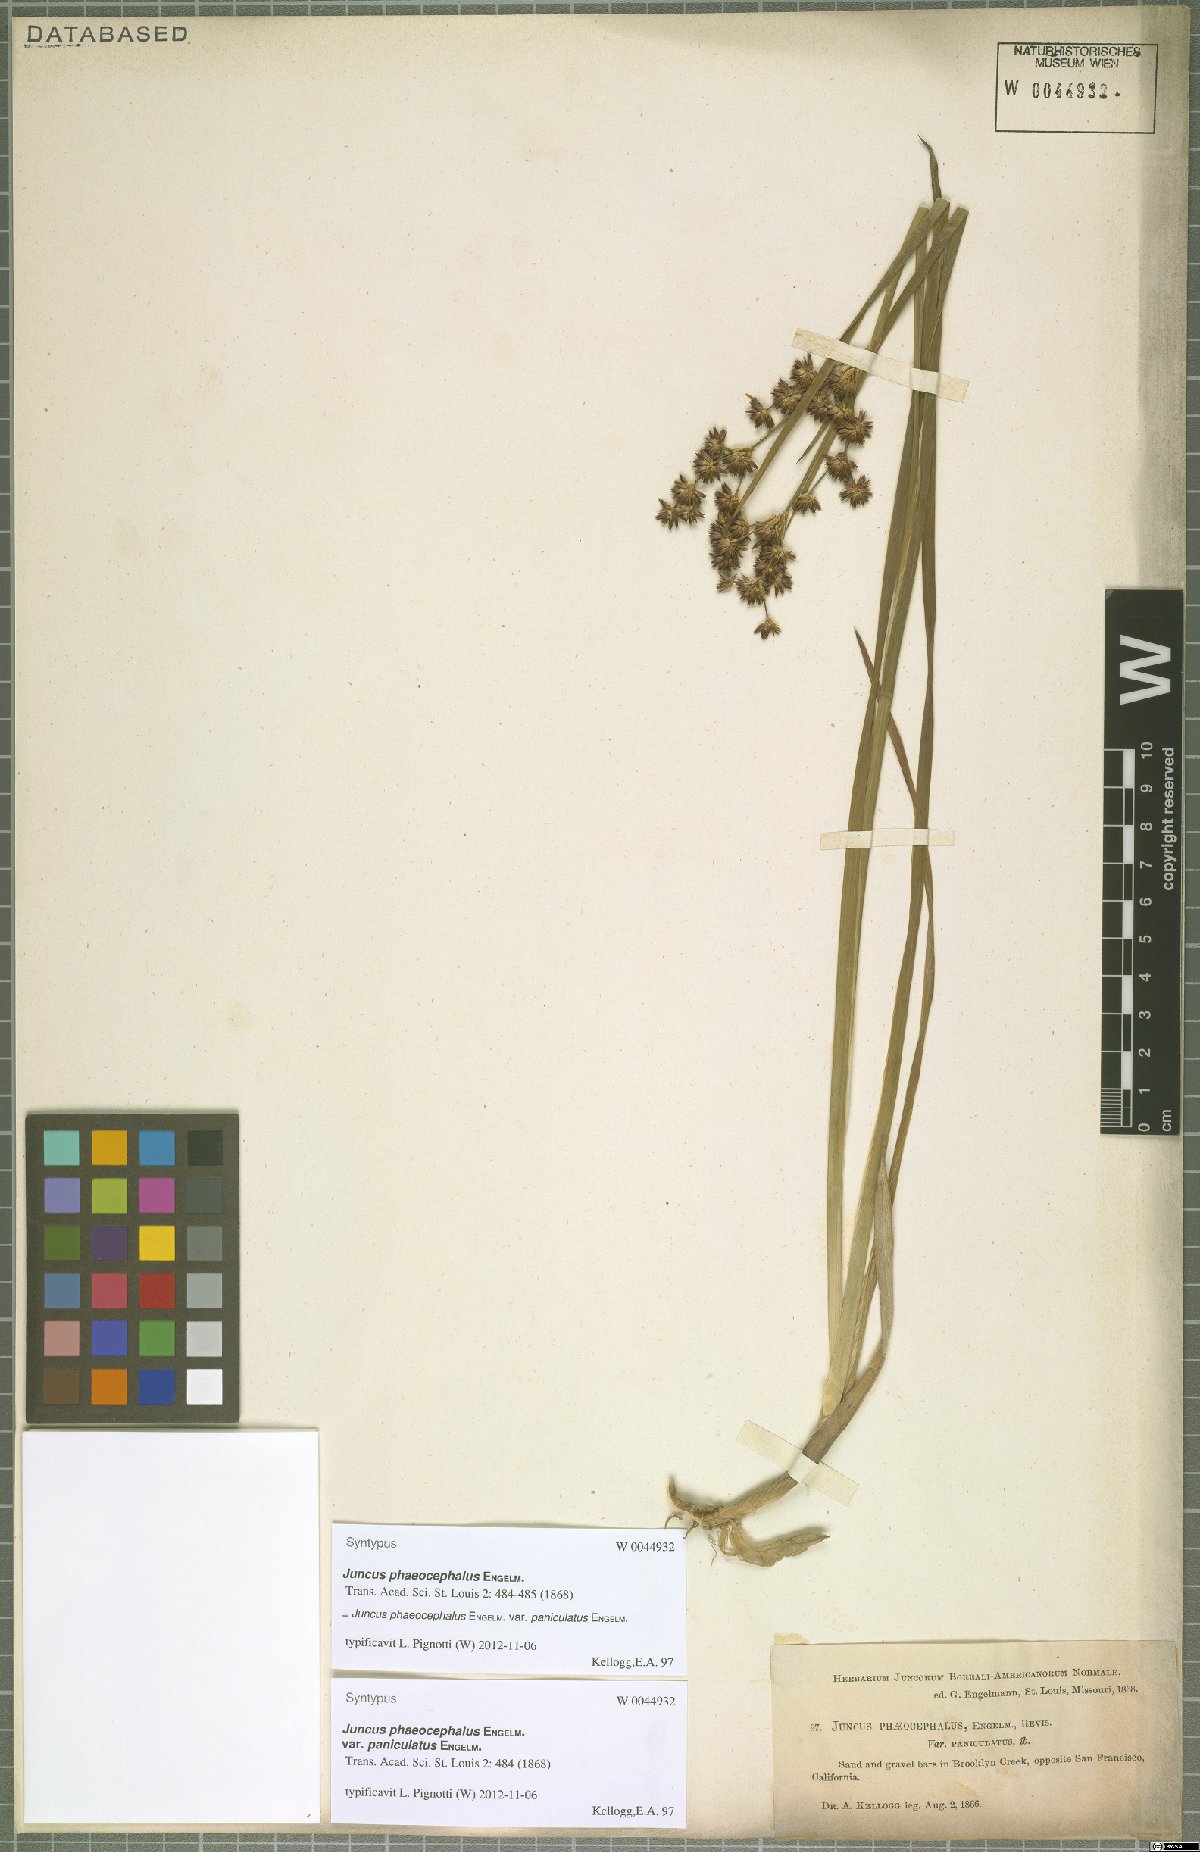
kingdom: Plantae
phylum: Tracheophyta
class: Liliopsida
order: Poales
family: Juncaceae
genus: Juncus
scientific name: Juncus phaeocephalus
